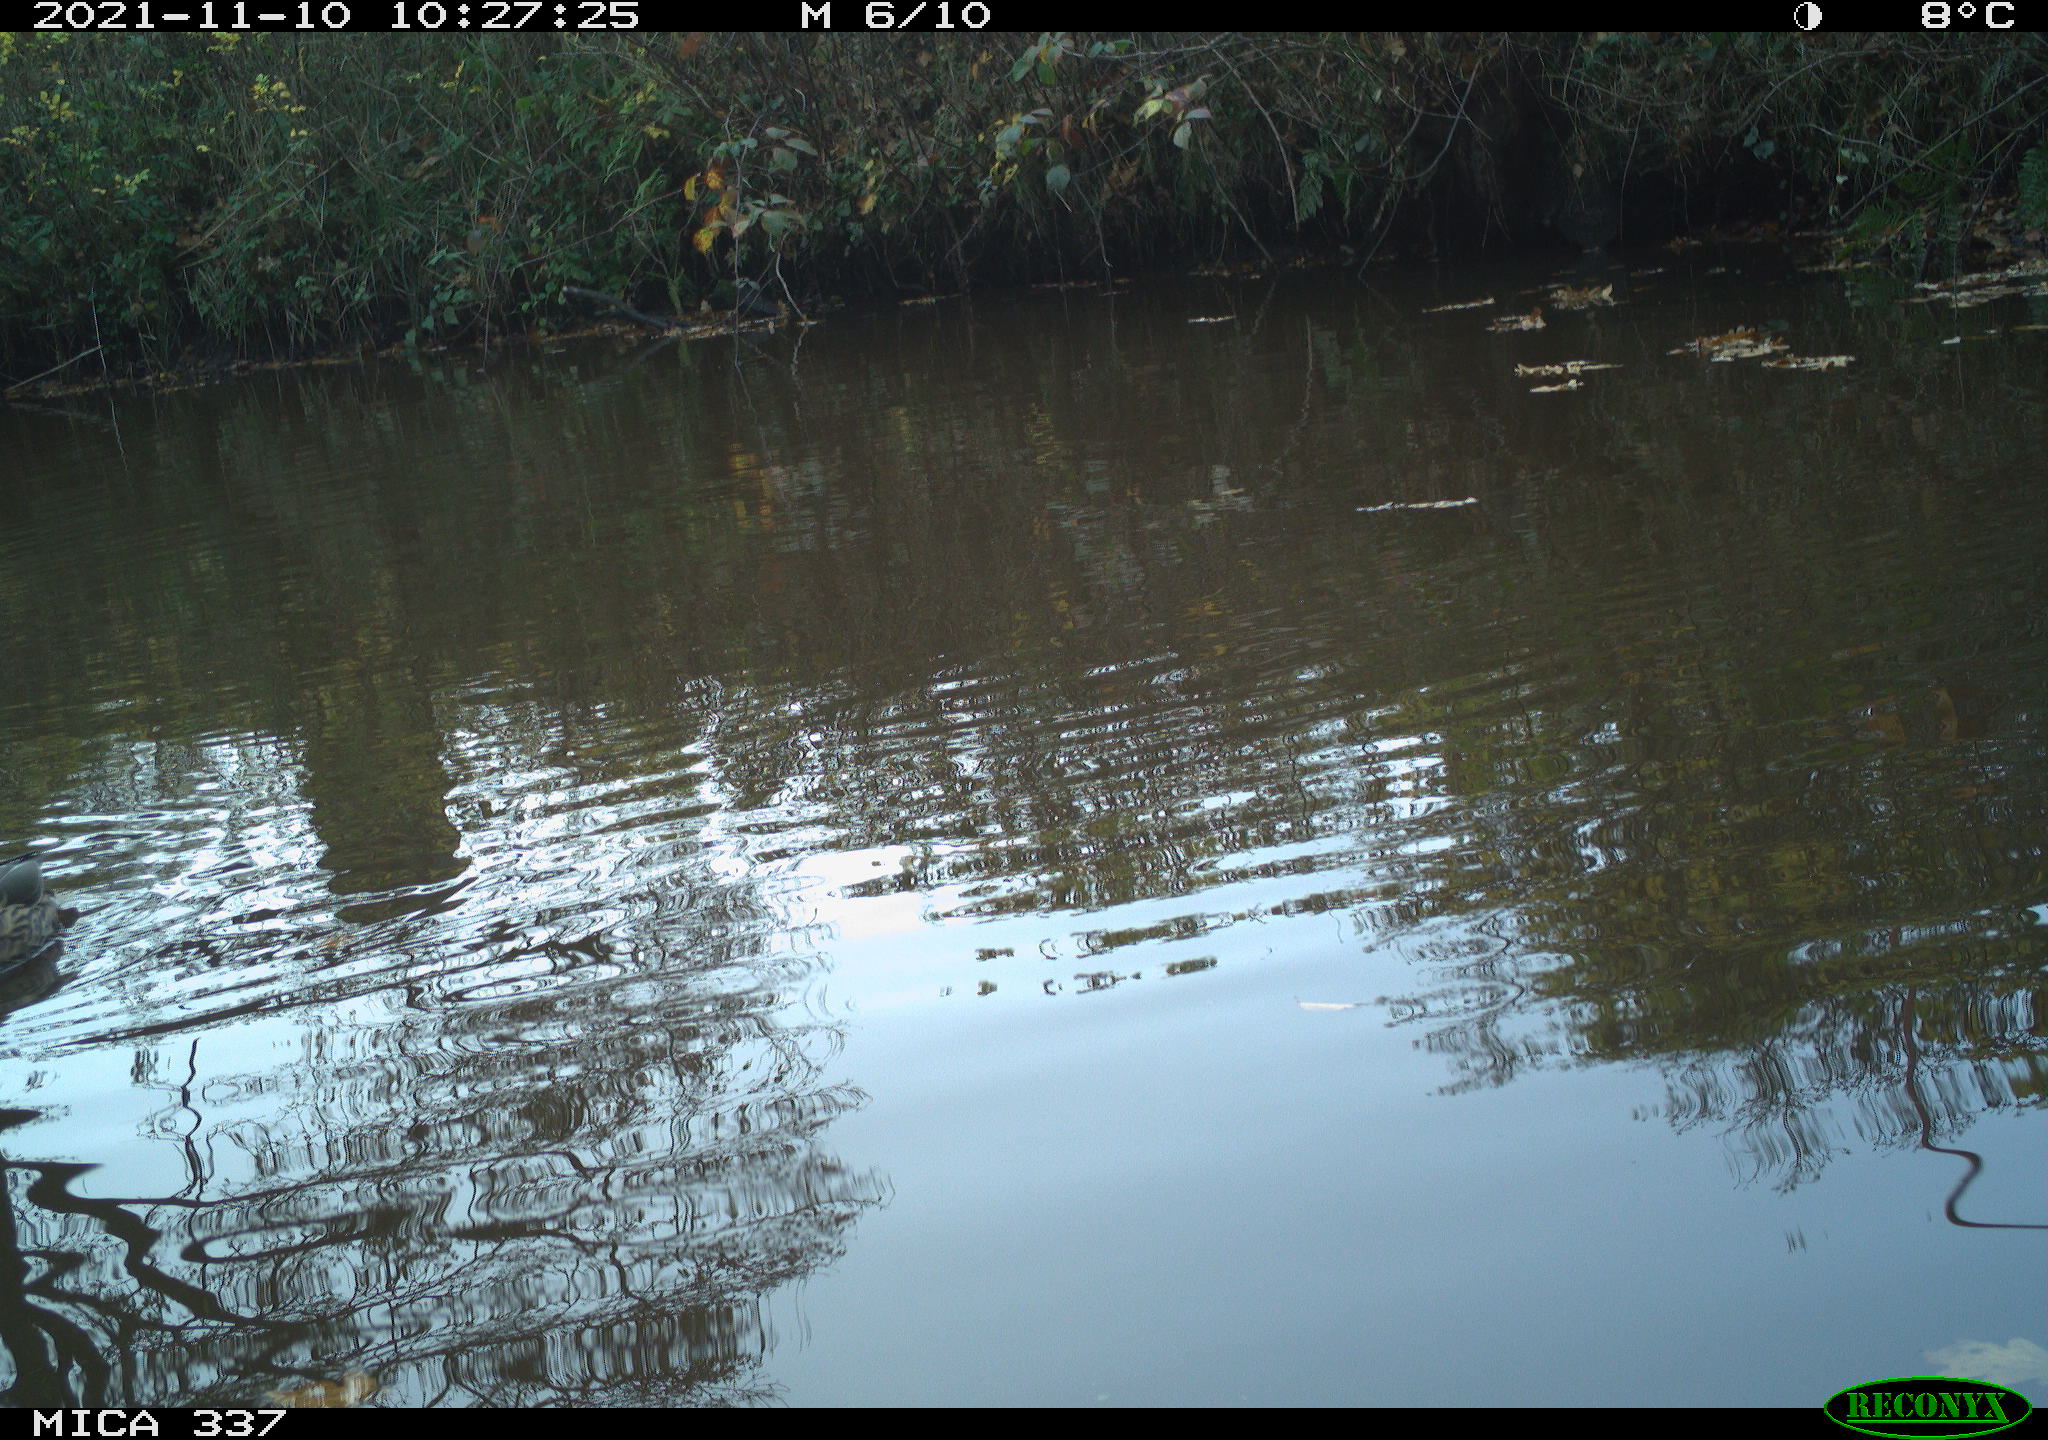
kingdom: Animalia
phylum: Chordata
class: Aves
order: Anseriformes
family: Anatidae
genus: Anas
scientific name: Anas platyrhynchos
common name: Mallard
